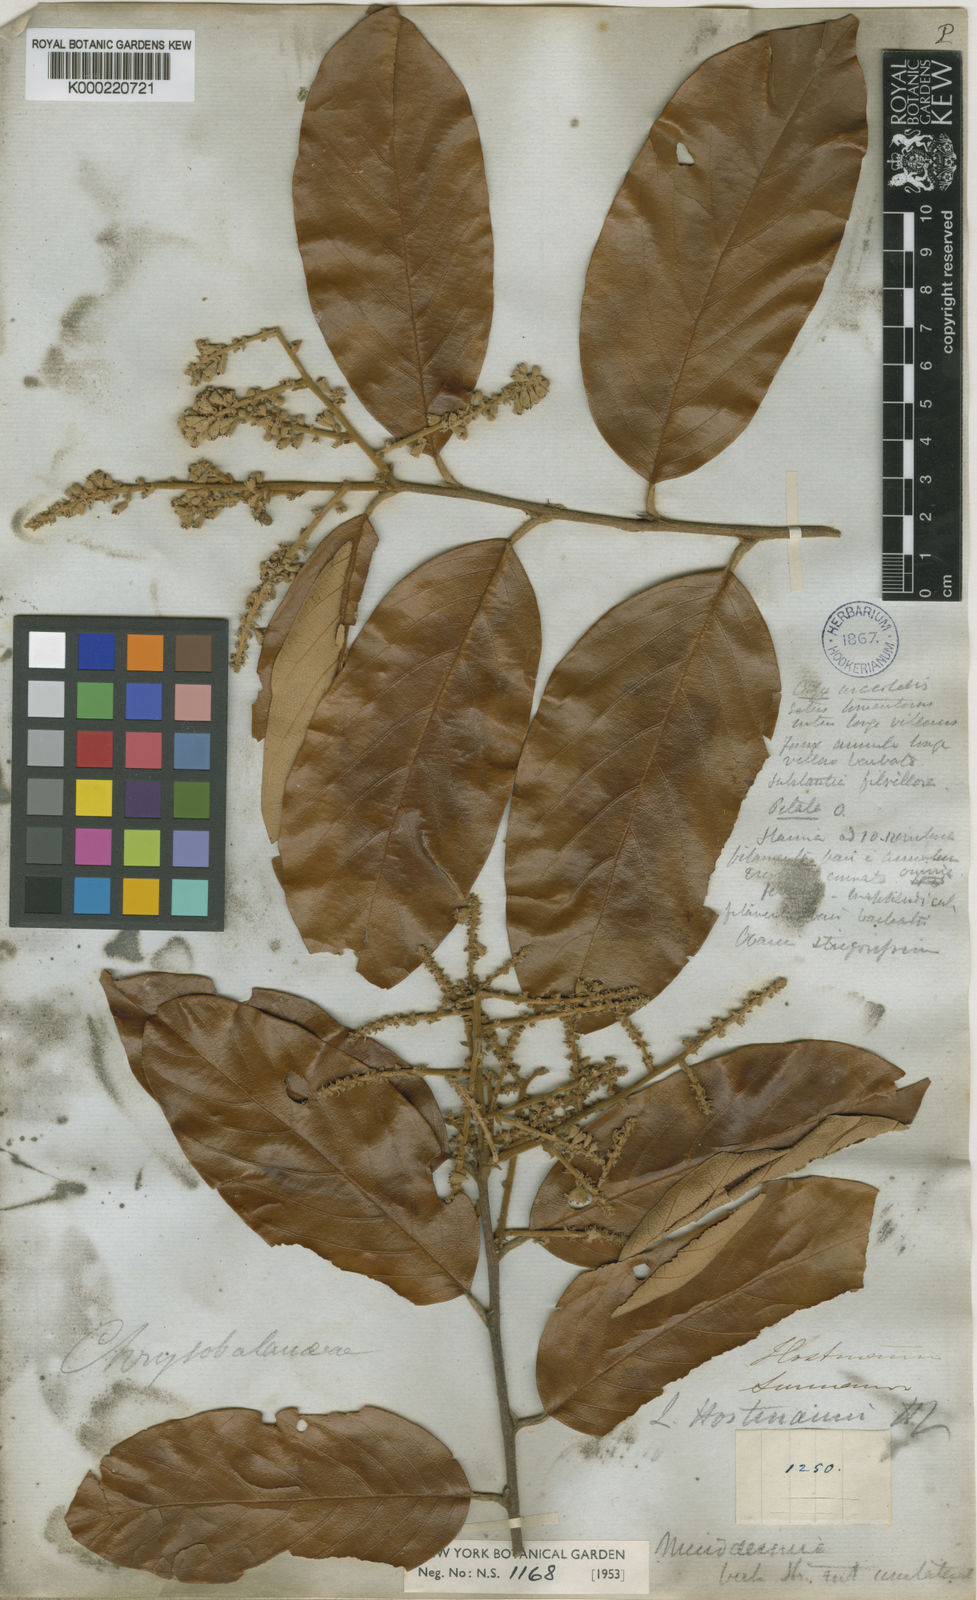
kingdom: Plantae
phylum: Tracheophyta
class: Magnoliopsida
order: Malpighiales
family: Chrysobalanaceae
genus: Licania
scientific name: Licania majuscula
